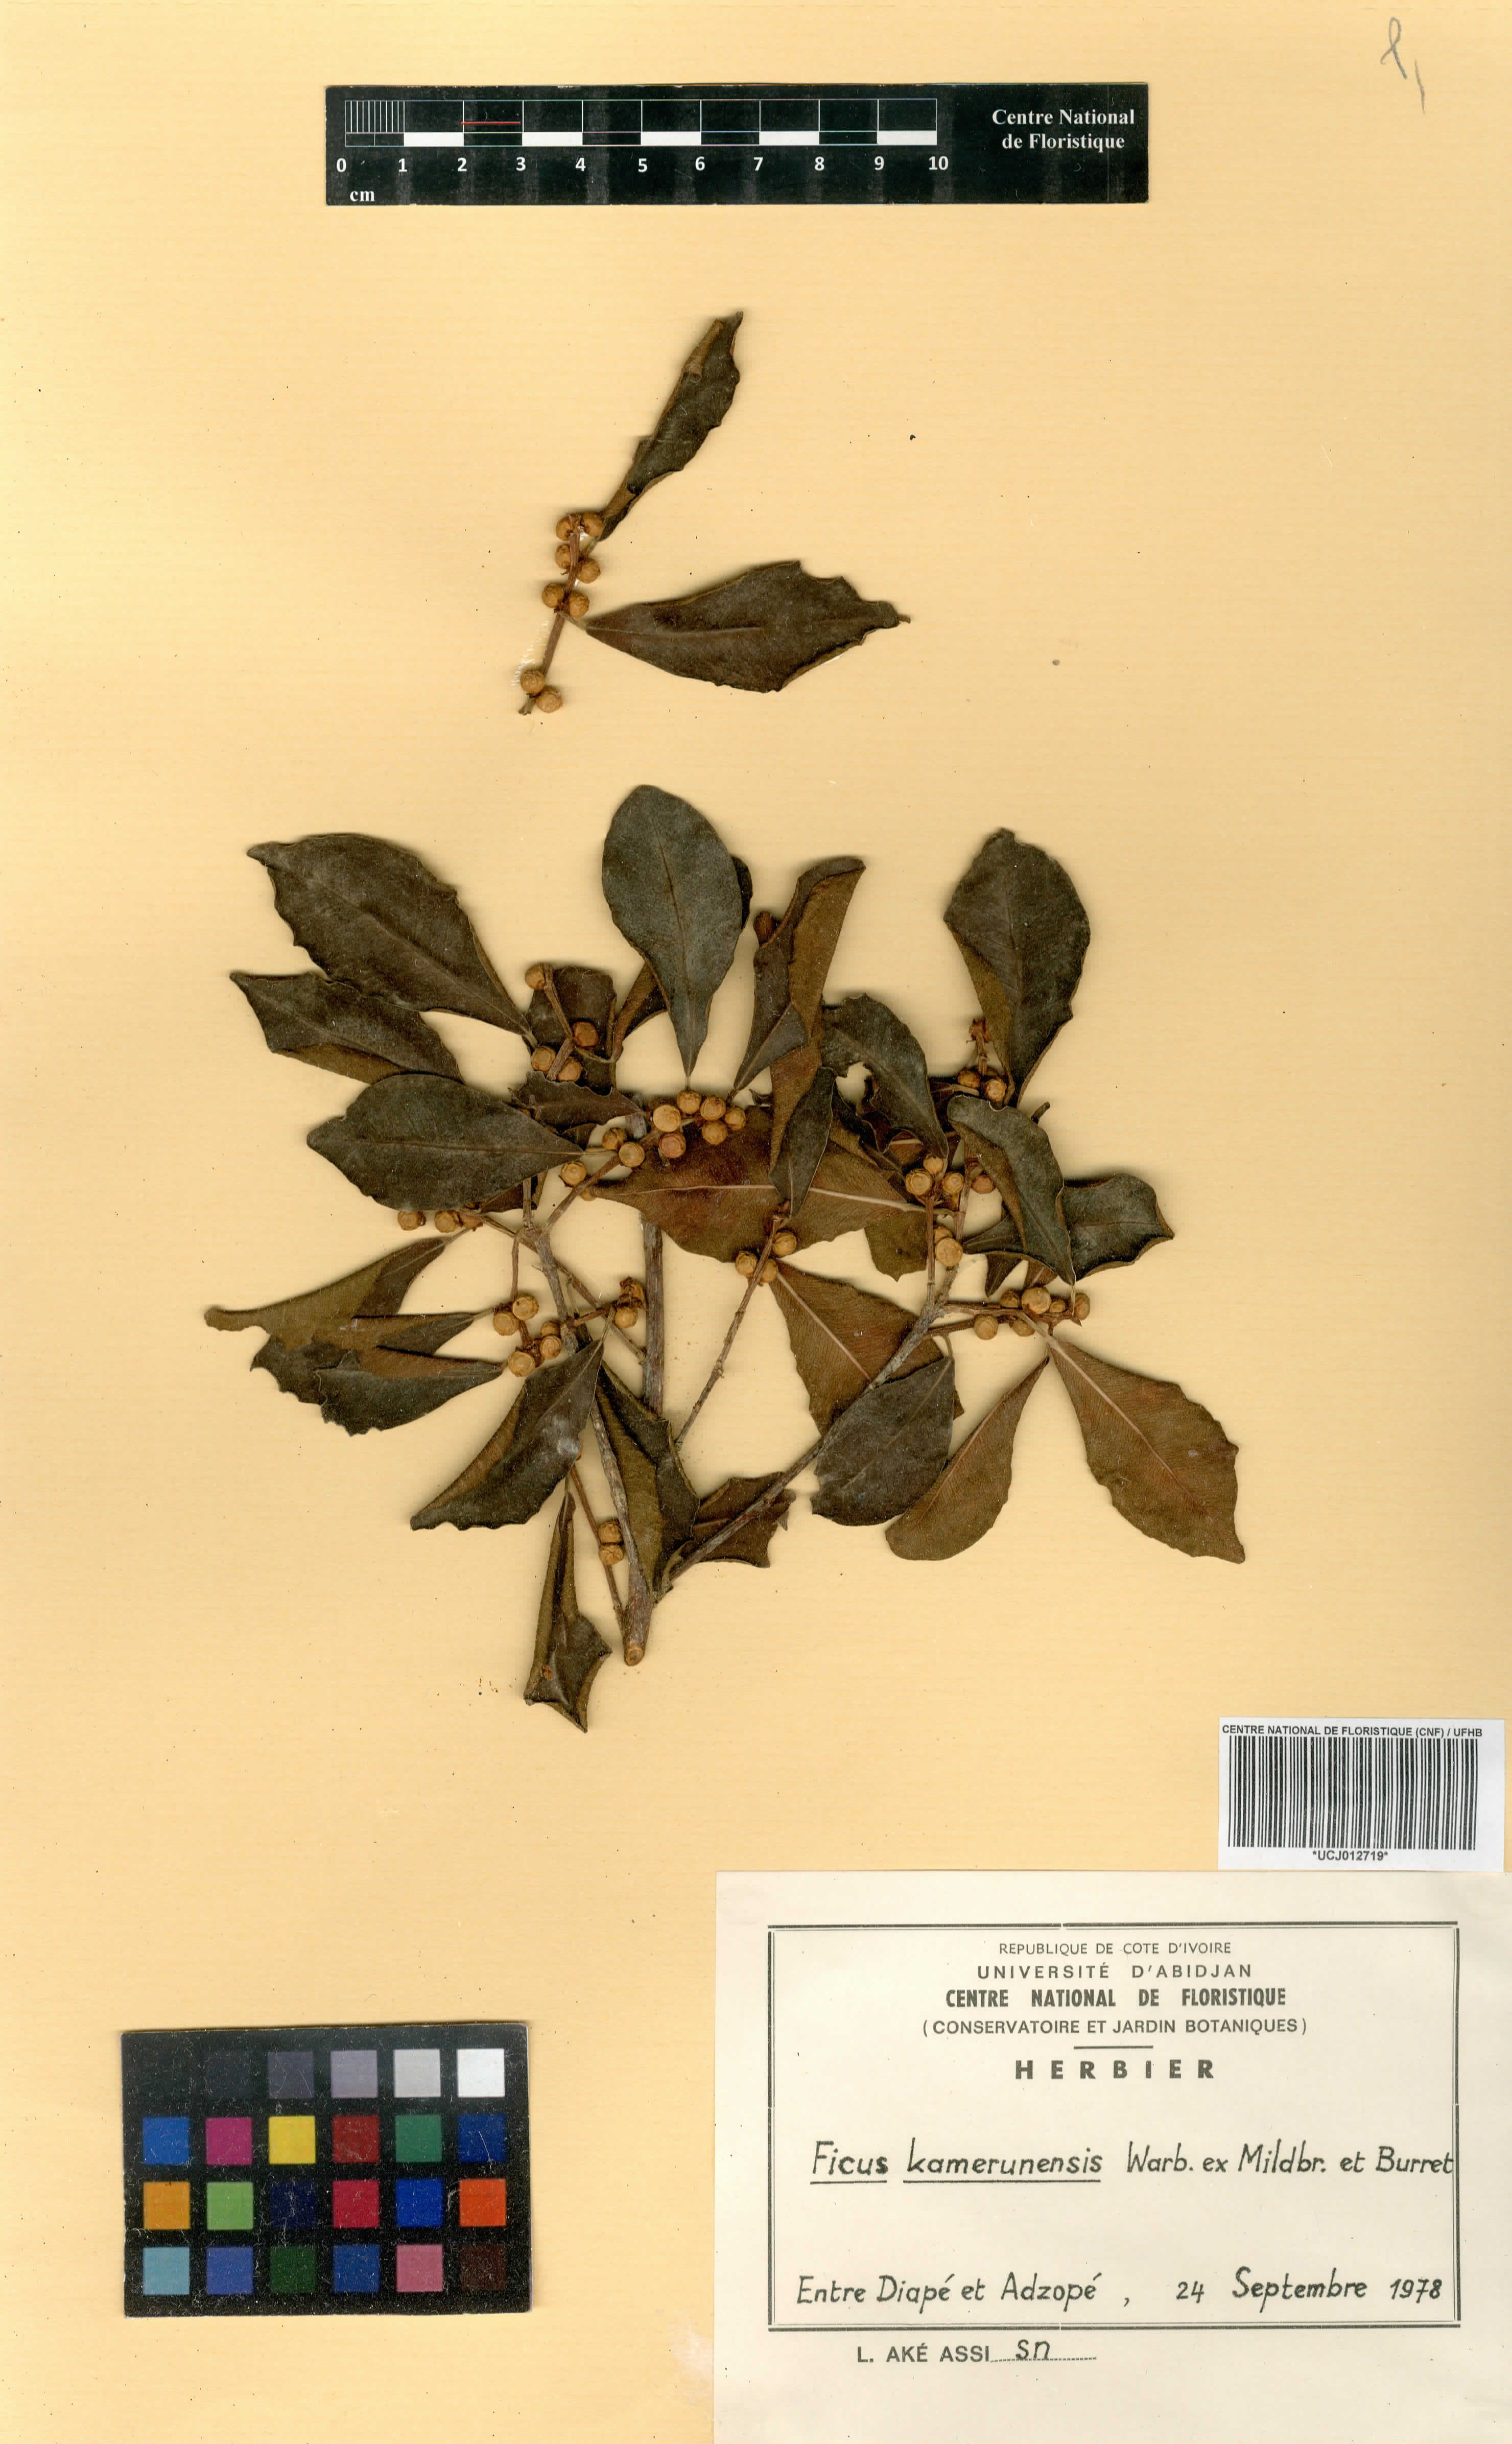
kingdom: Plantae
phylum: Tracheophyta
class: Magnoliopsida
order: Rosales
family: Moraceae
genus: Ficus
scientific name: Ficus kamerunensis
